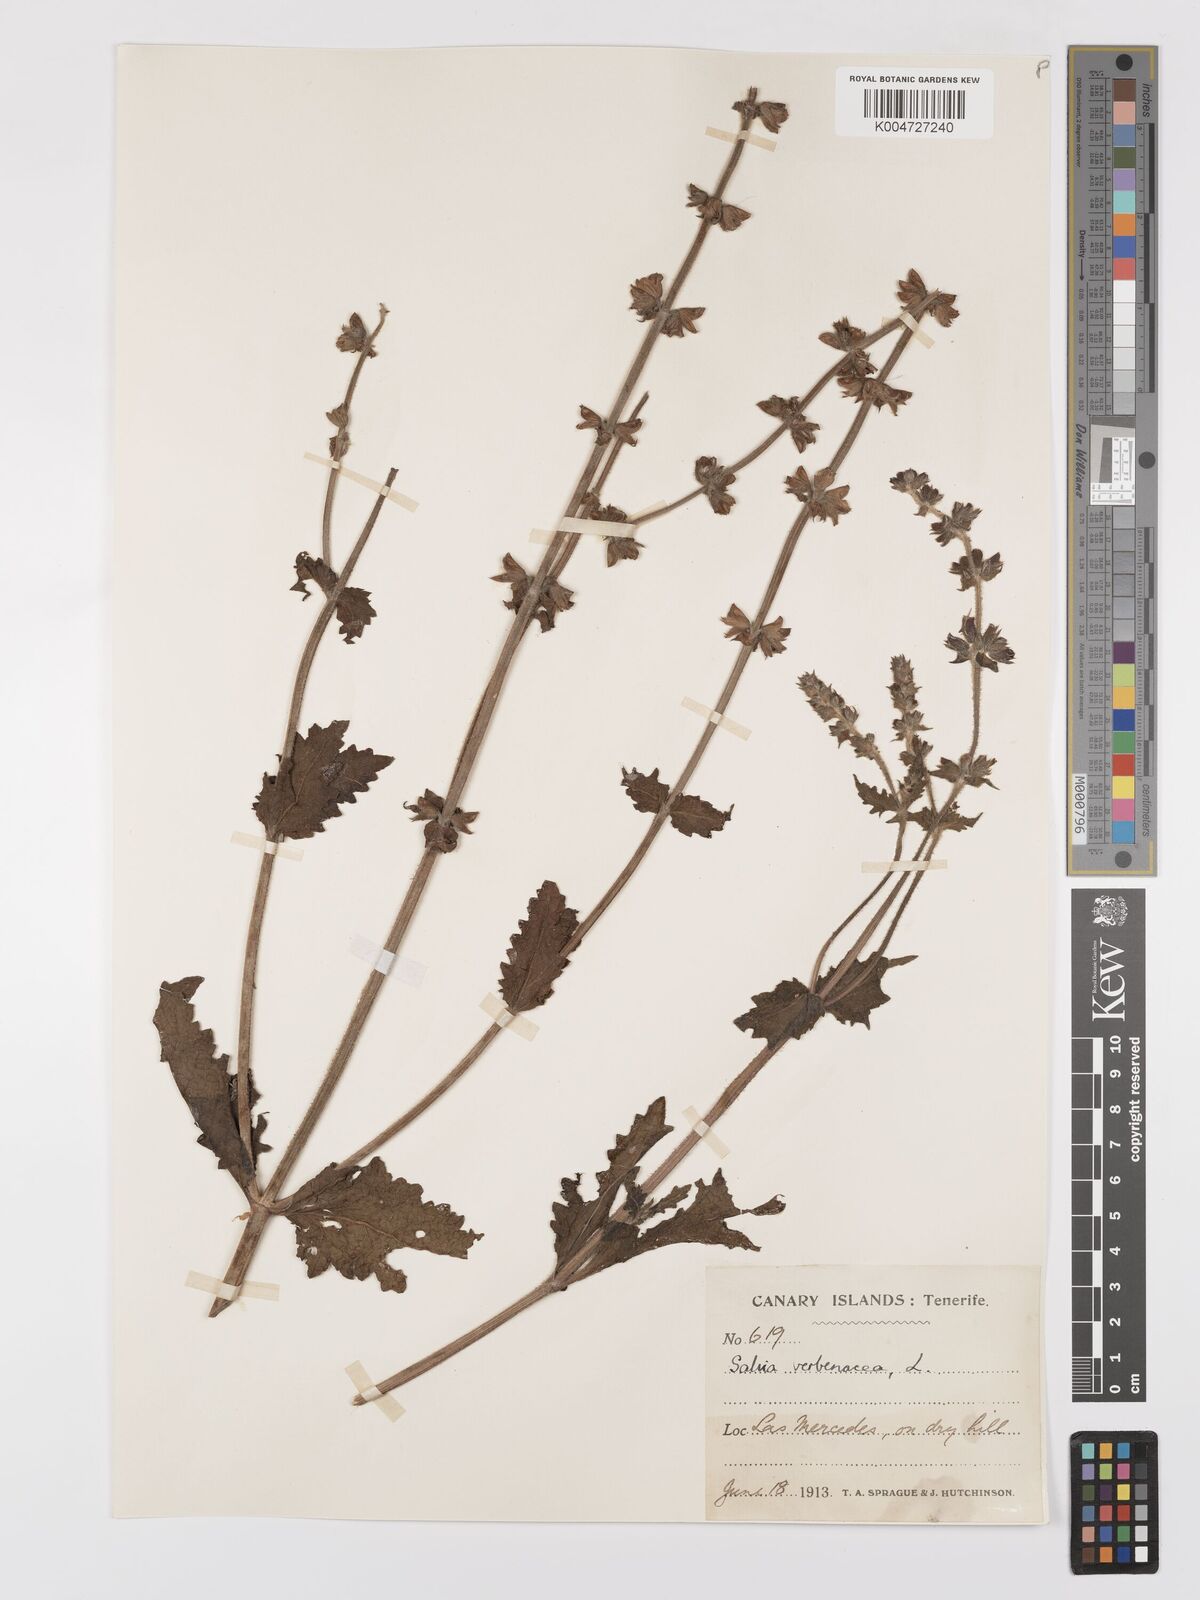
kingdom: Plantae
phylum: Tracheophyta
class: Magnoliopsida
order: Lamiales
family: Lamiaceae
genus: Salvia
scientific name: Salvia verbenaca
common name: Wild clary
